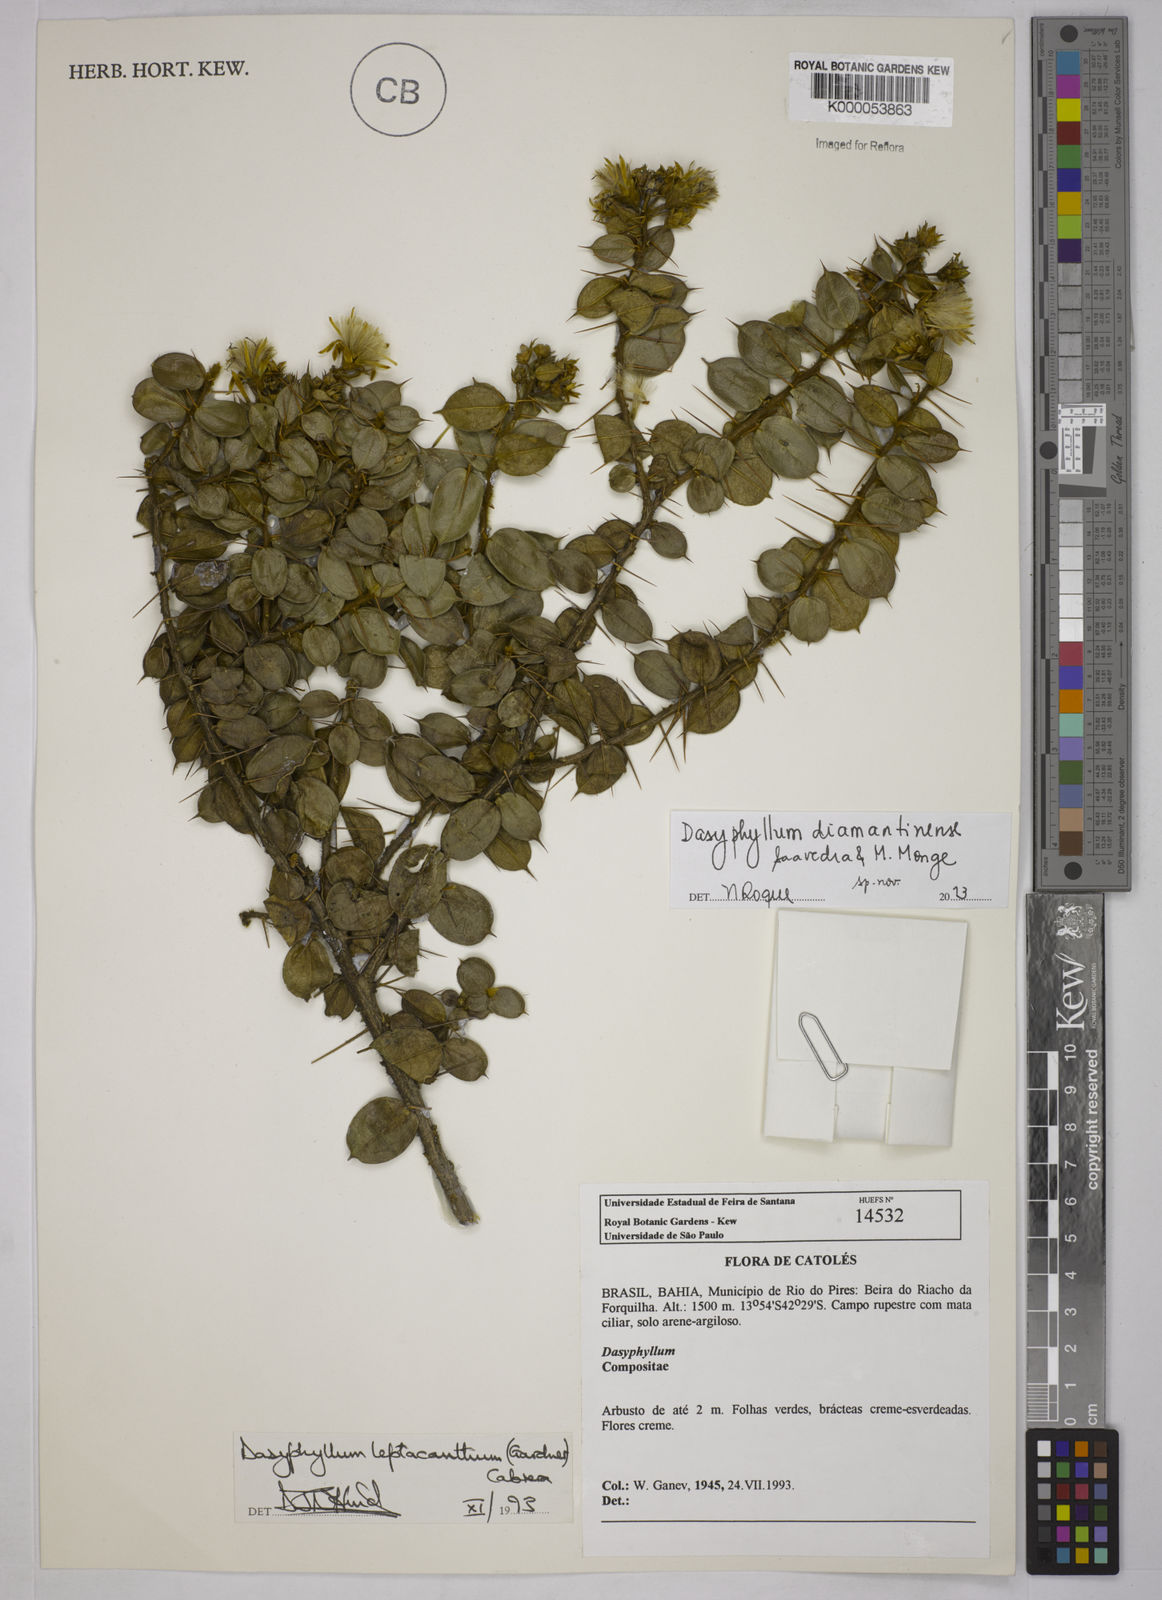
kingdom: Plantae
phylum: Tracheophyta
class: Magnoliopsida
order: Asterales
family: Asteraceae
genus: Dasyphyllum
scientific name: Dasyphyllum leptacanthum
